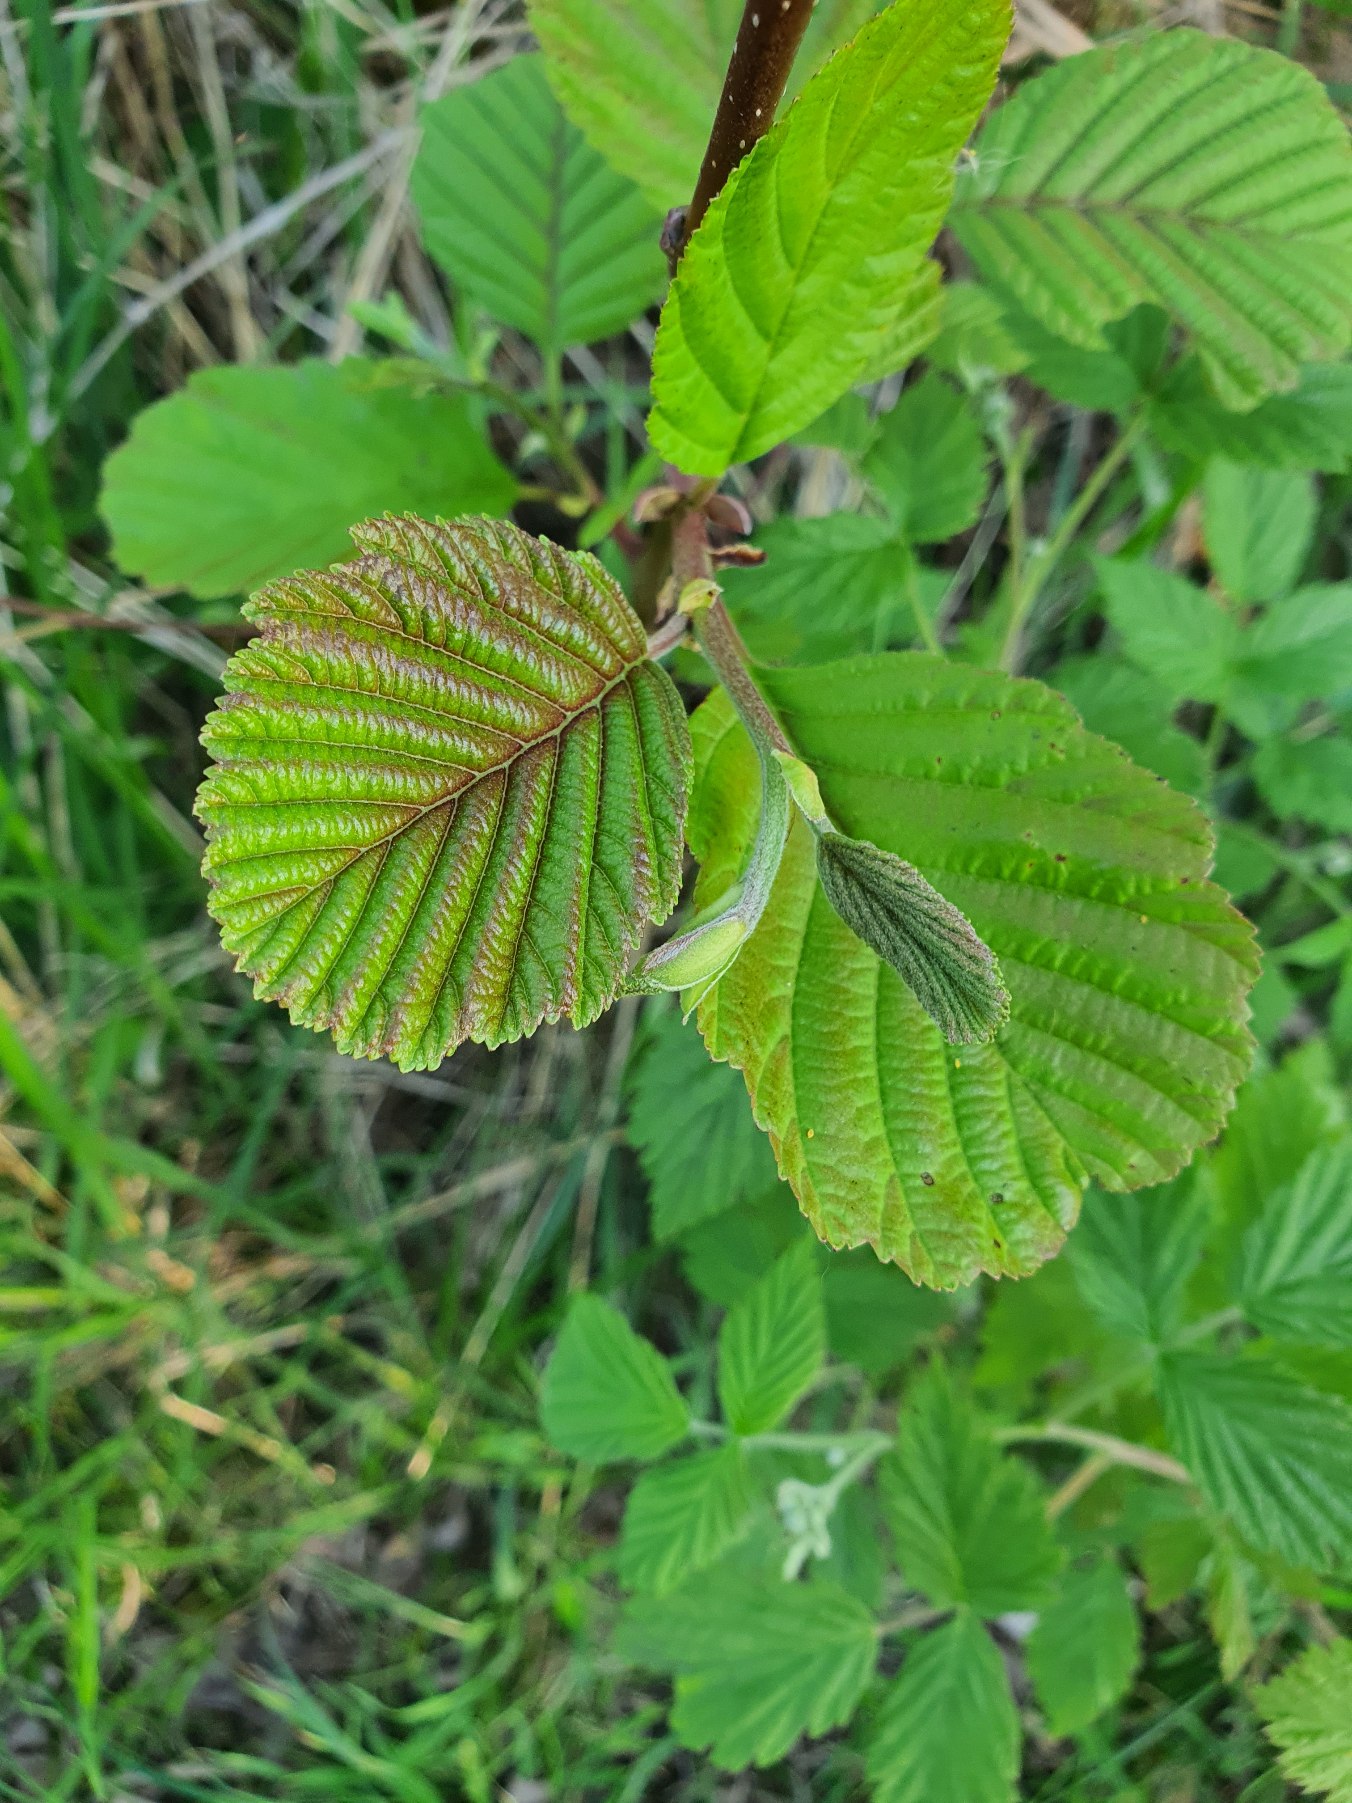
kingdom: Plantae
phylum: Tracheophyta
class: Magnoliopsida
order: Fagales
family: Betulaceae
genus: Alnus
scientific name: Alnus glutinosa
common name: Rød-el
